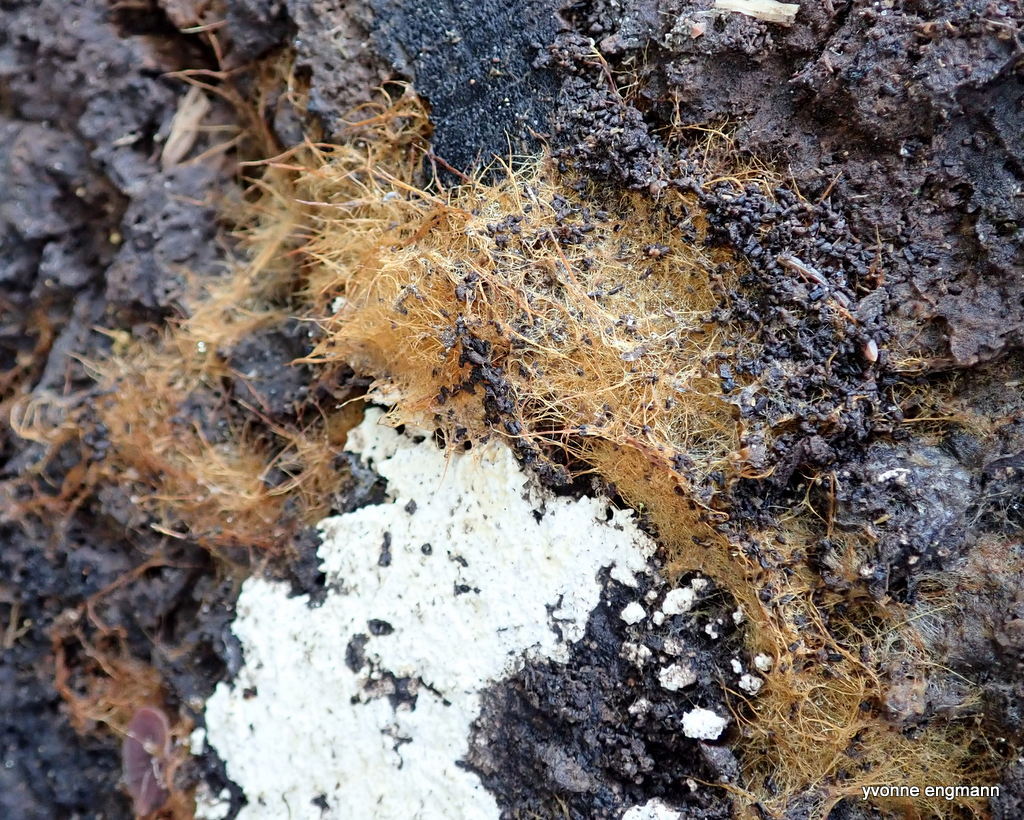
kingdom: Fungi
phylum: Basidiomycota
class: Agaricomycetes
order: Agaricales
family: Psathyrellaceae
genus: Ozonium
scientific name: Ozonium
